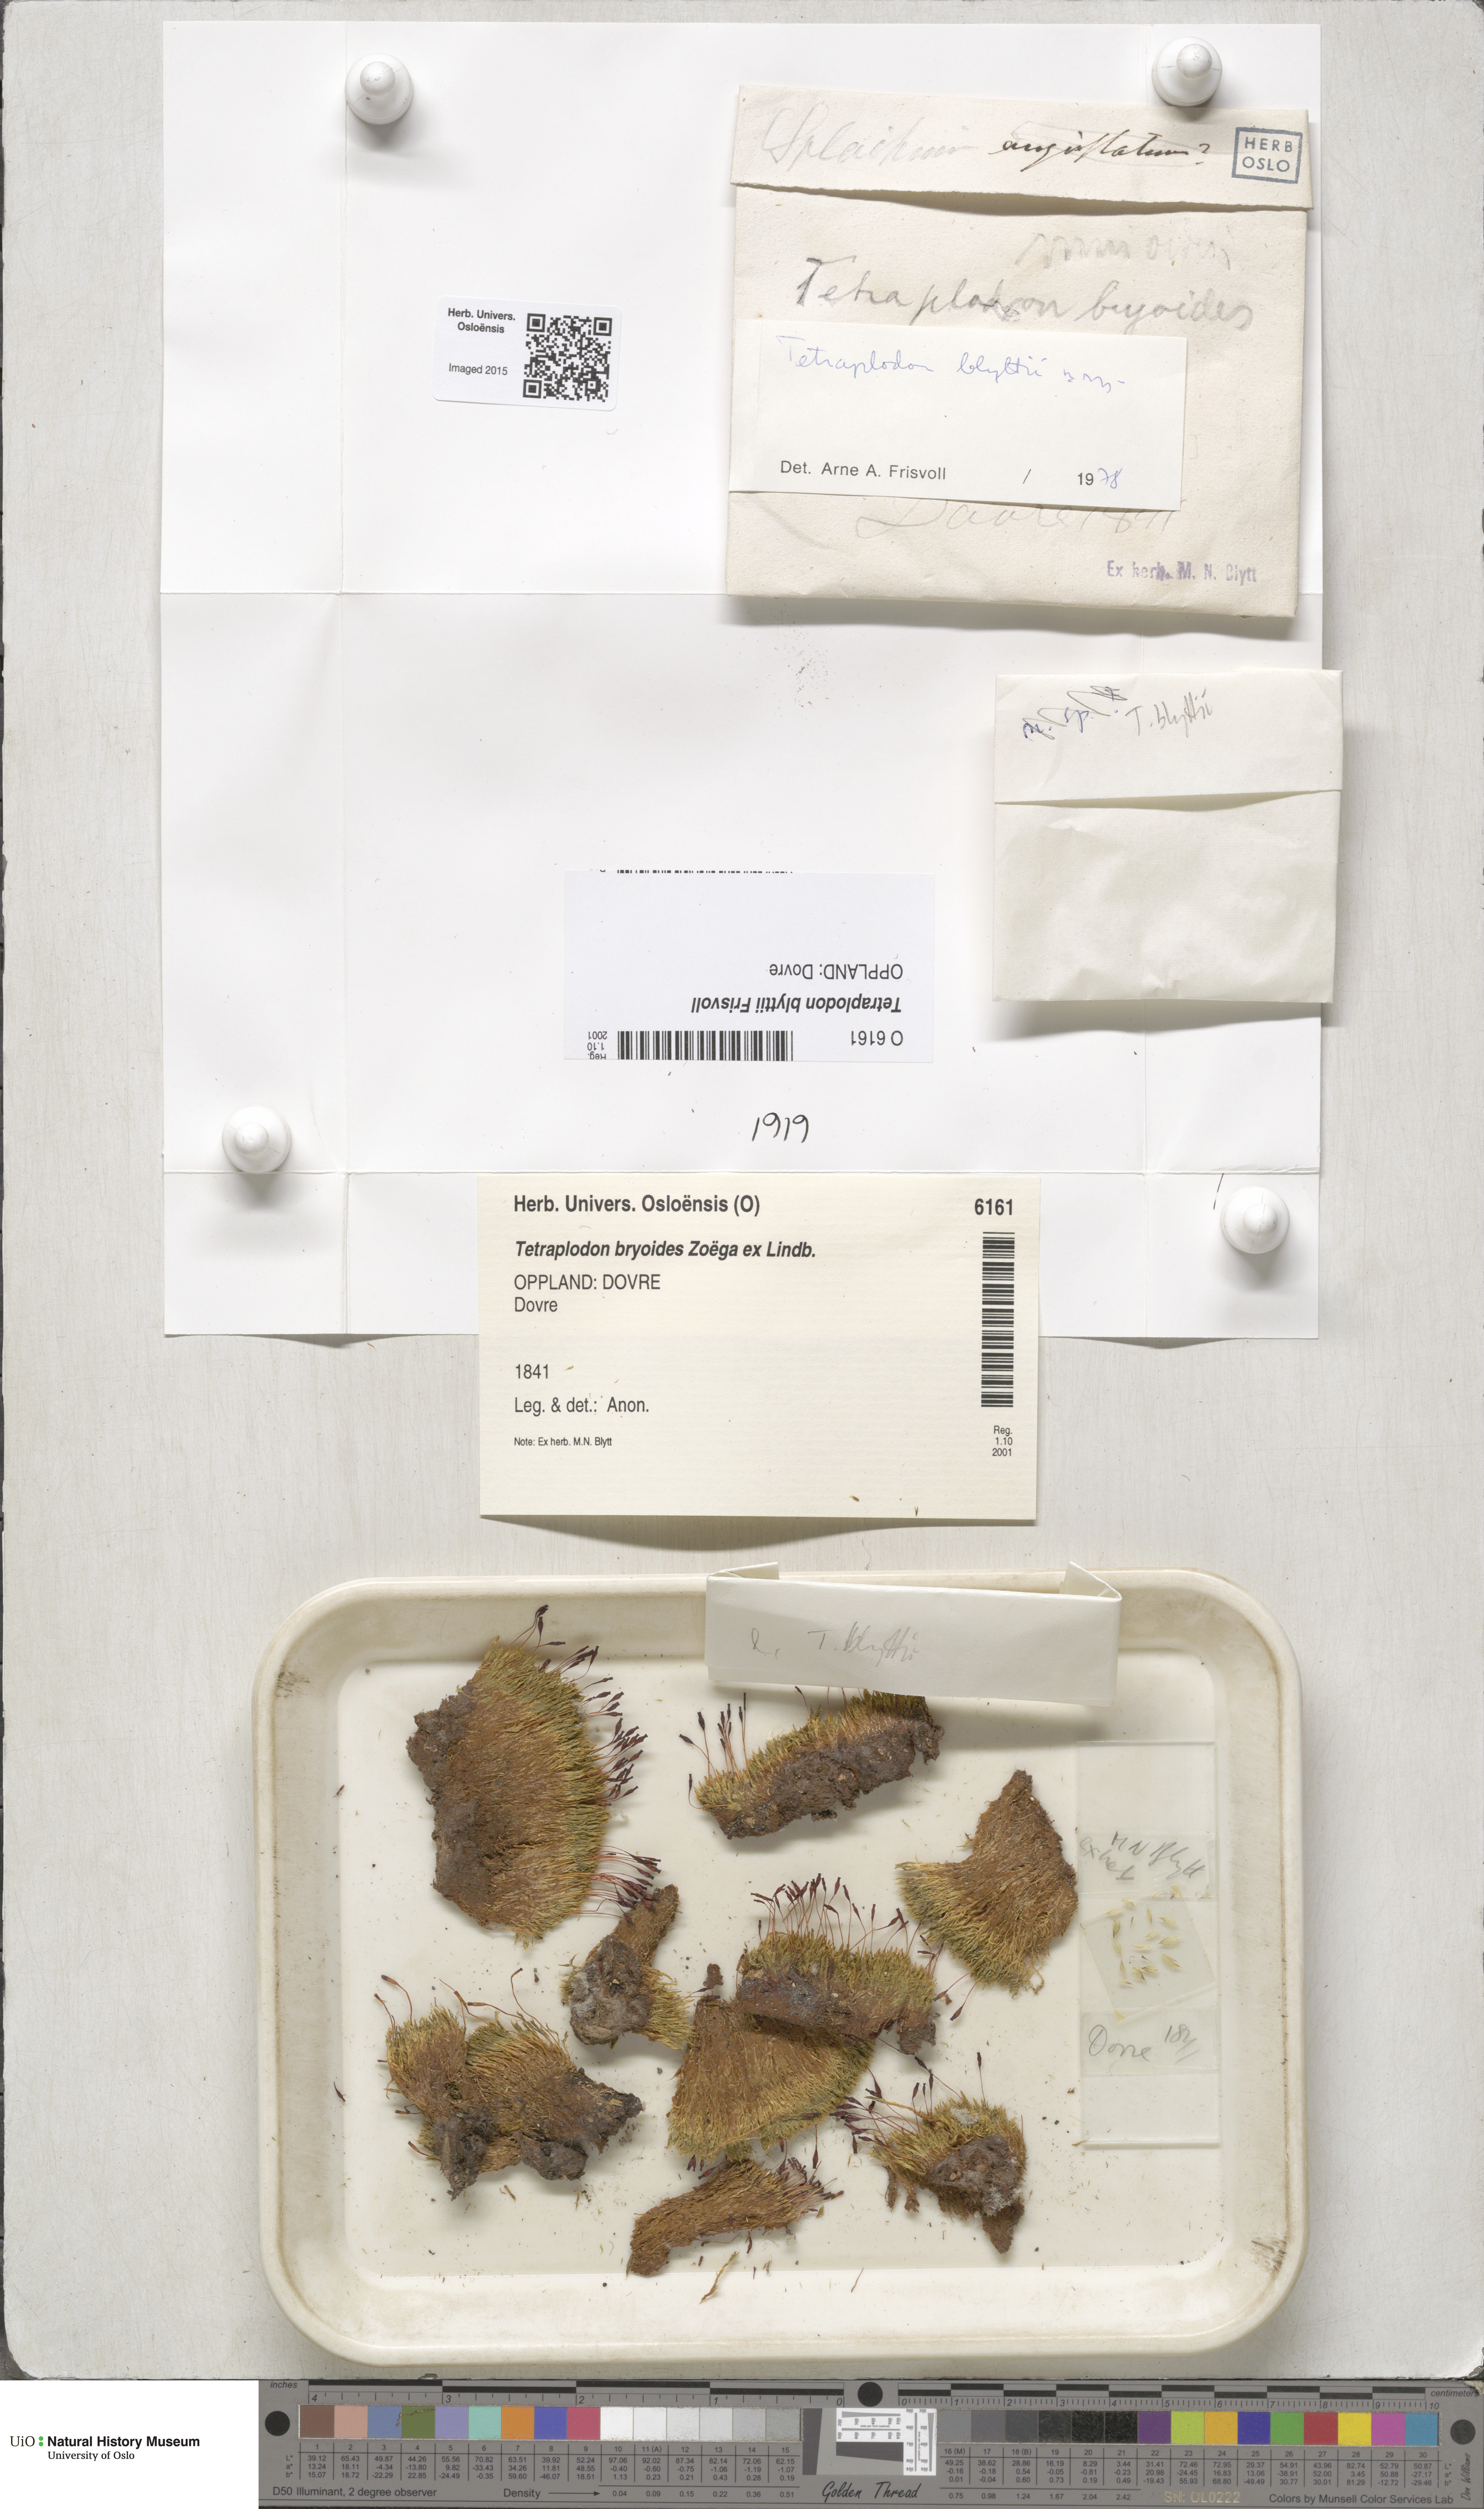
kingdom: Plantae
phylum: Bryophyta
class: Bryopsida
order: Splachnales
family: Splachnaceae
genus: Tetraplodon
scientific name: Tetraplodon blyttii
